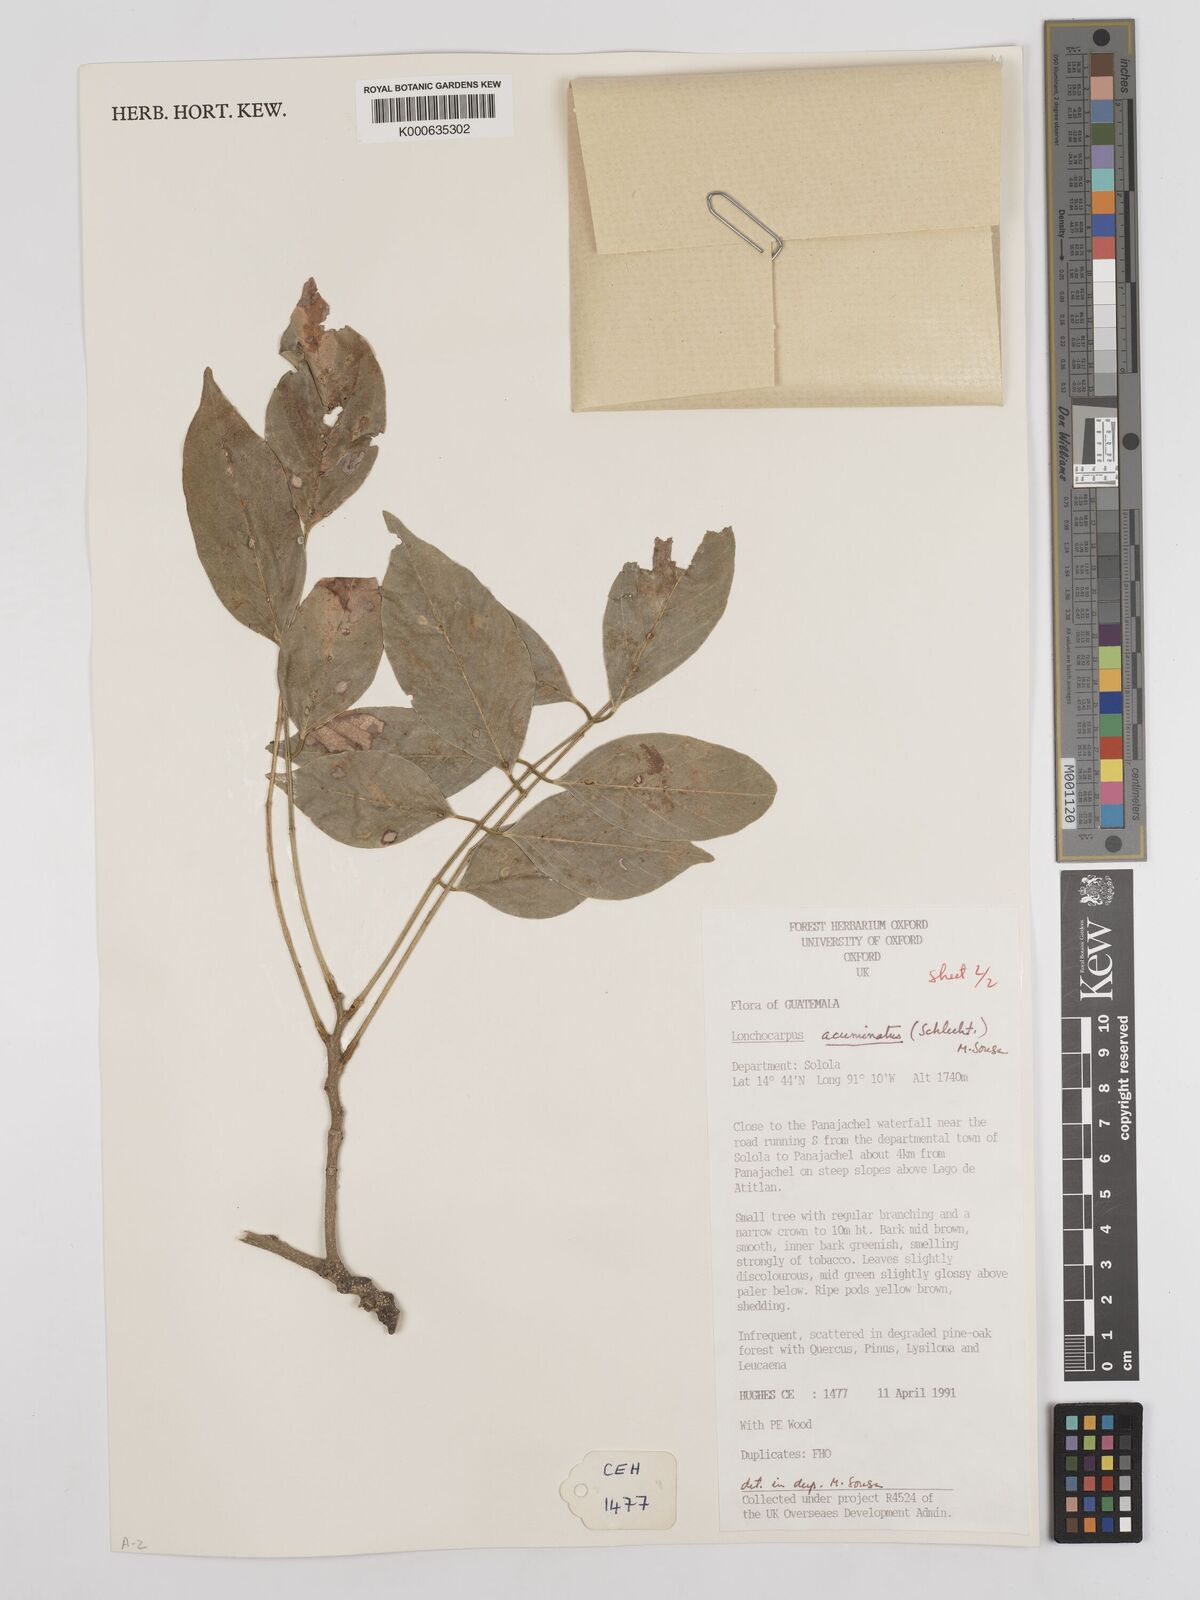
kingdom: Plantae
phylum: Tracheophyta
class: Magnoliopsida
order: Fabales
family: Fabaceae
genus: Lonchocarpus
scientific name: Lonchocarpus acuminatus
